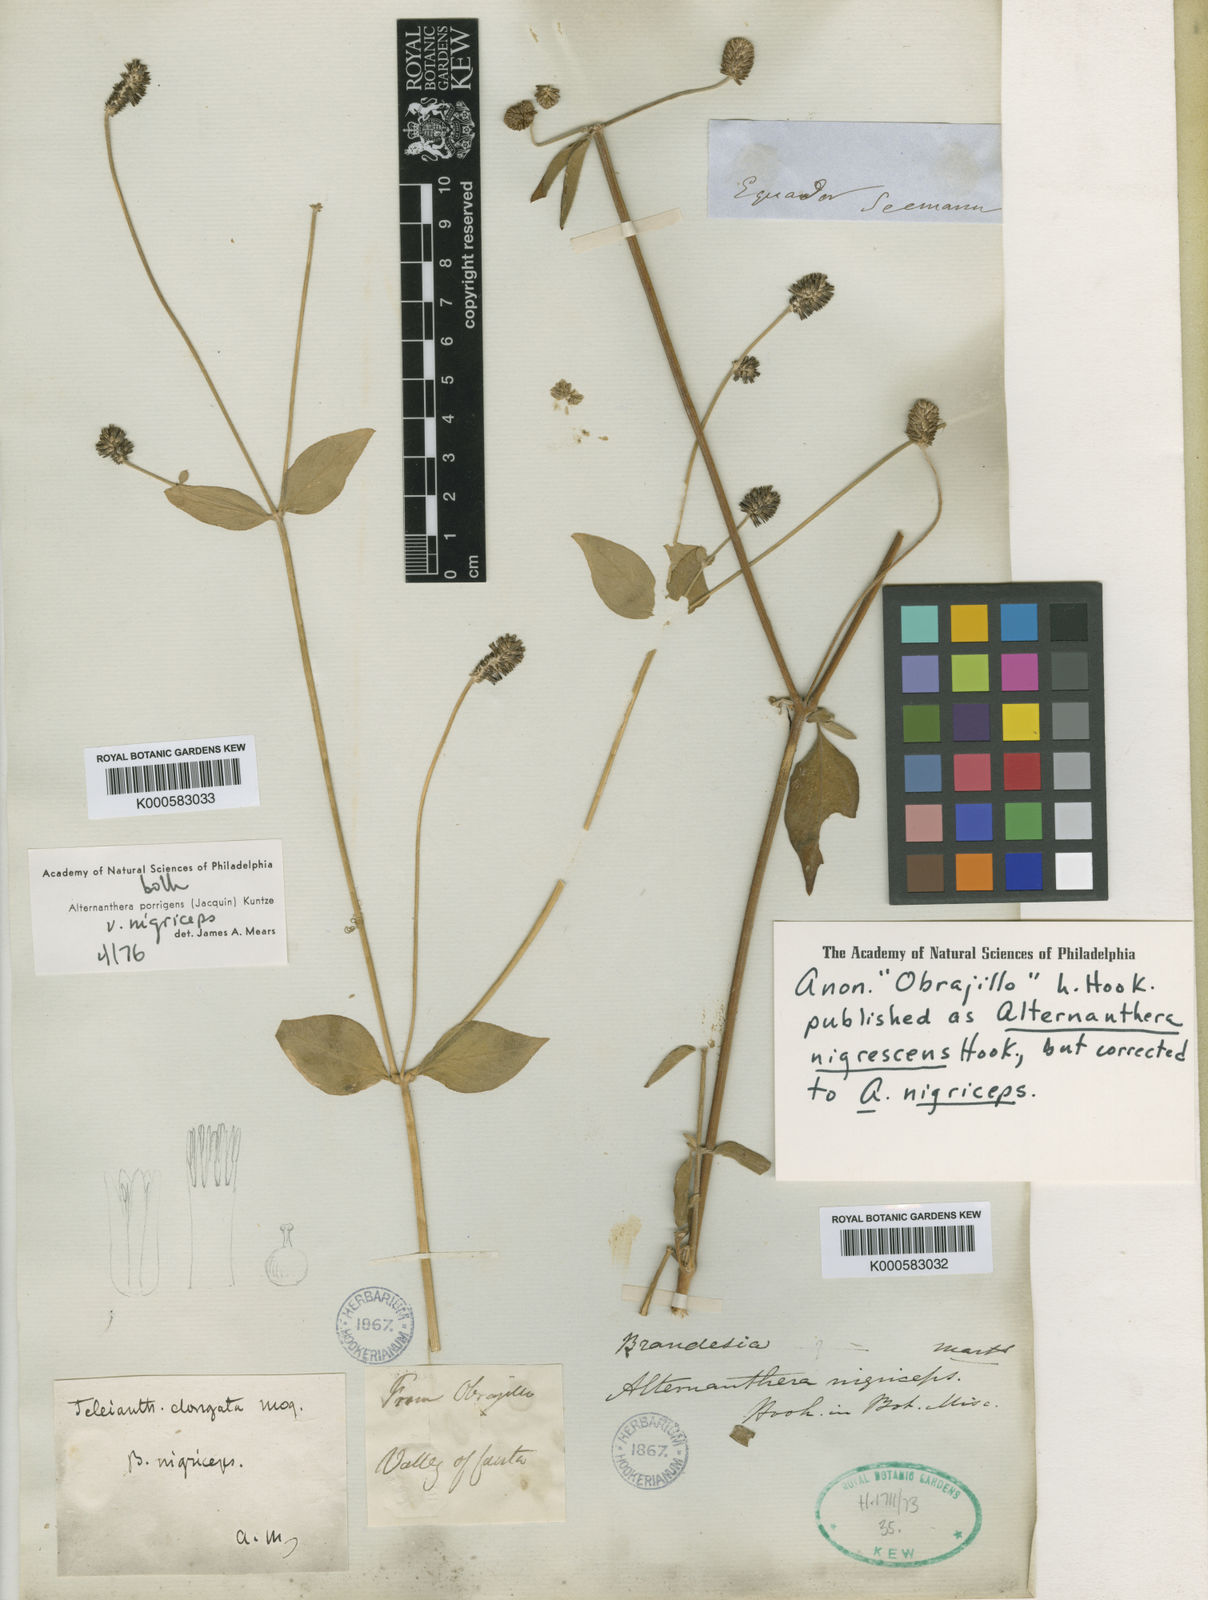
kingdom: Plantae
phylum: Tracheophyta
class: Magnoliopsida
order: Caryophyllales
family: Amaranthaceae
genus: Alternanthera
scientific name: Alternanthera porrigens
